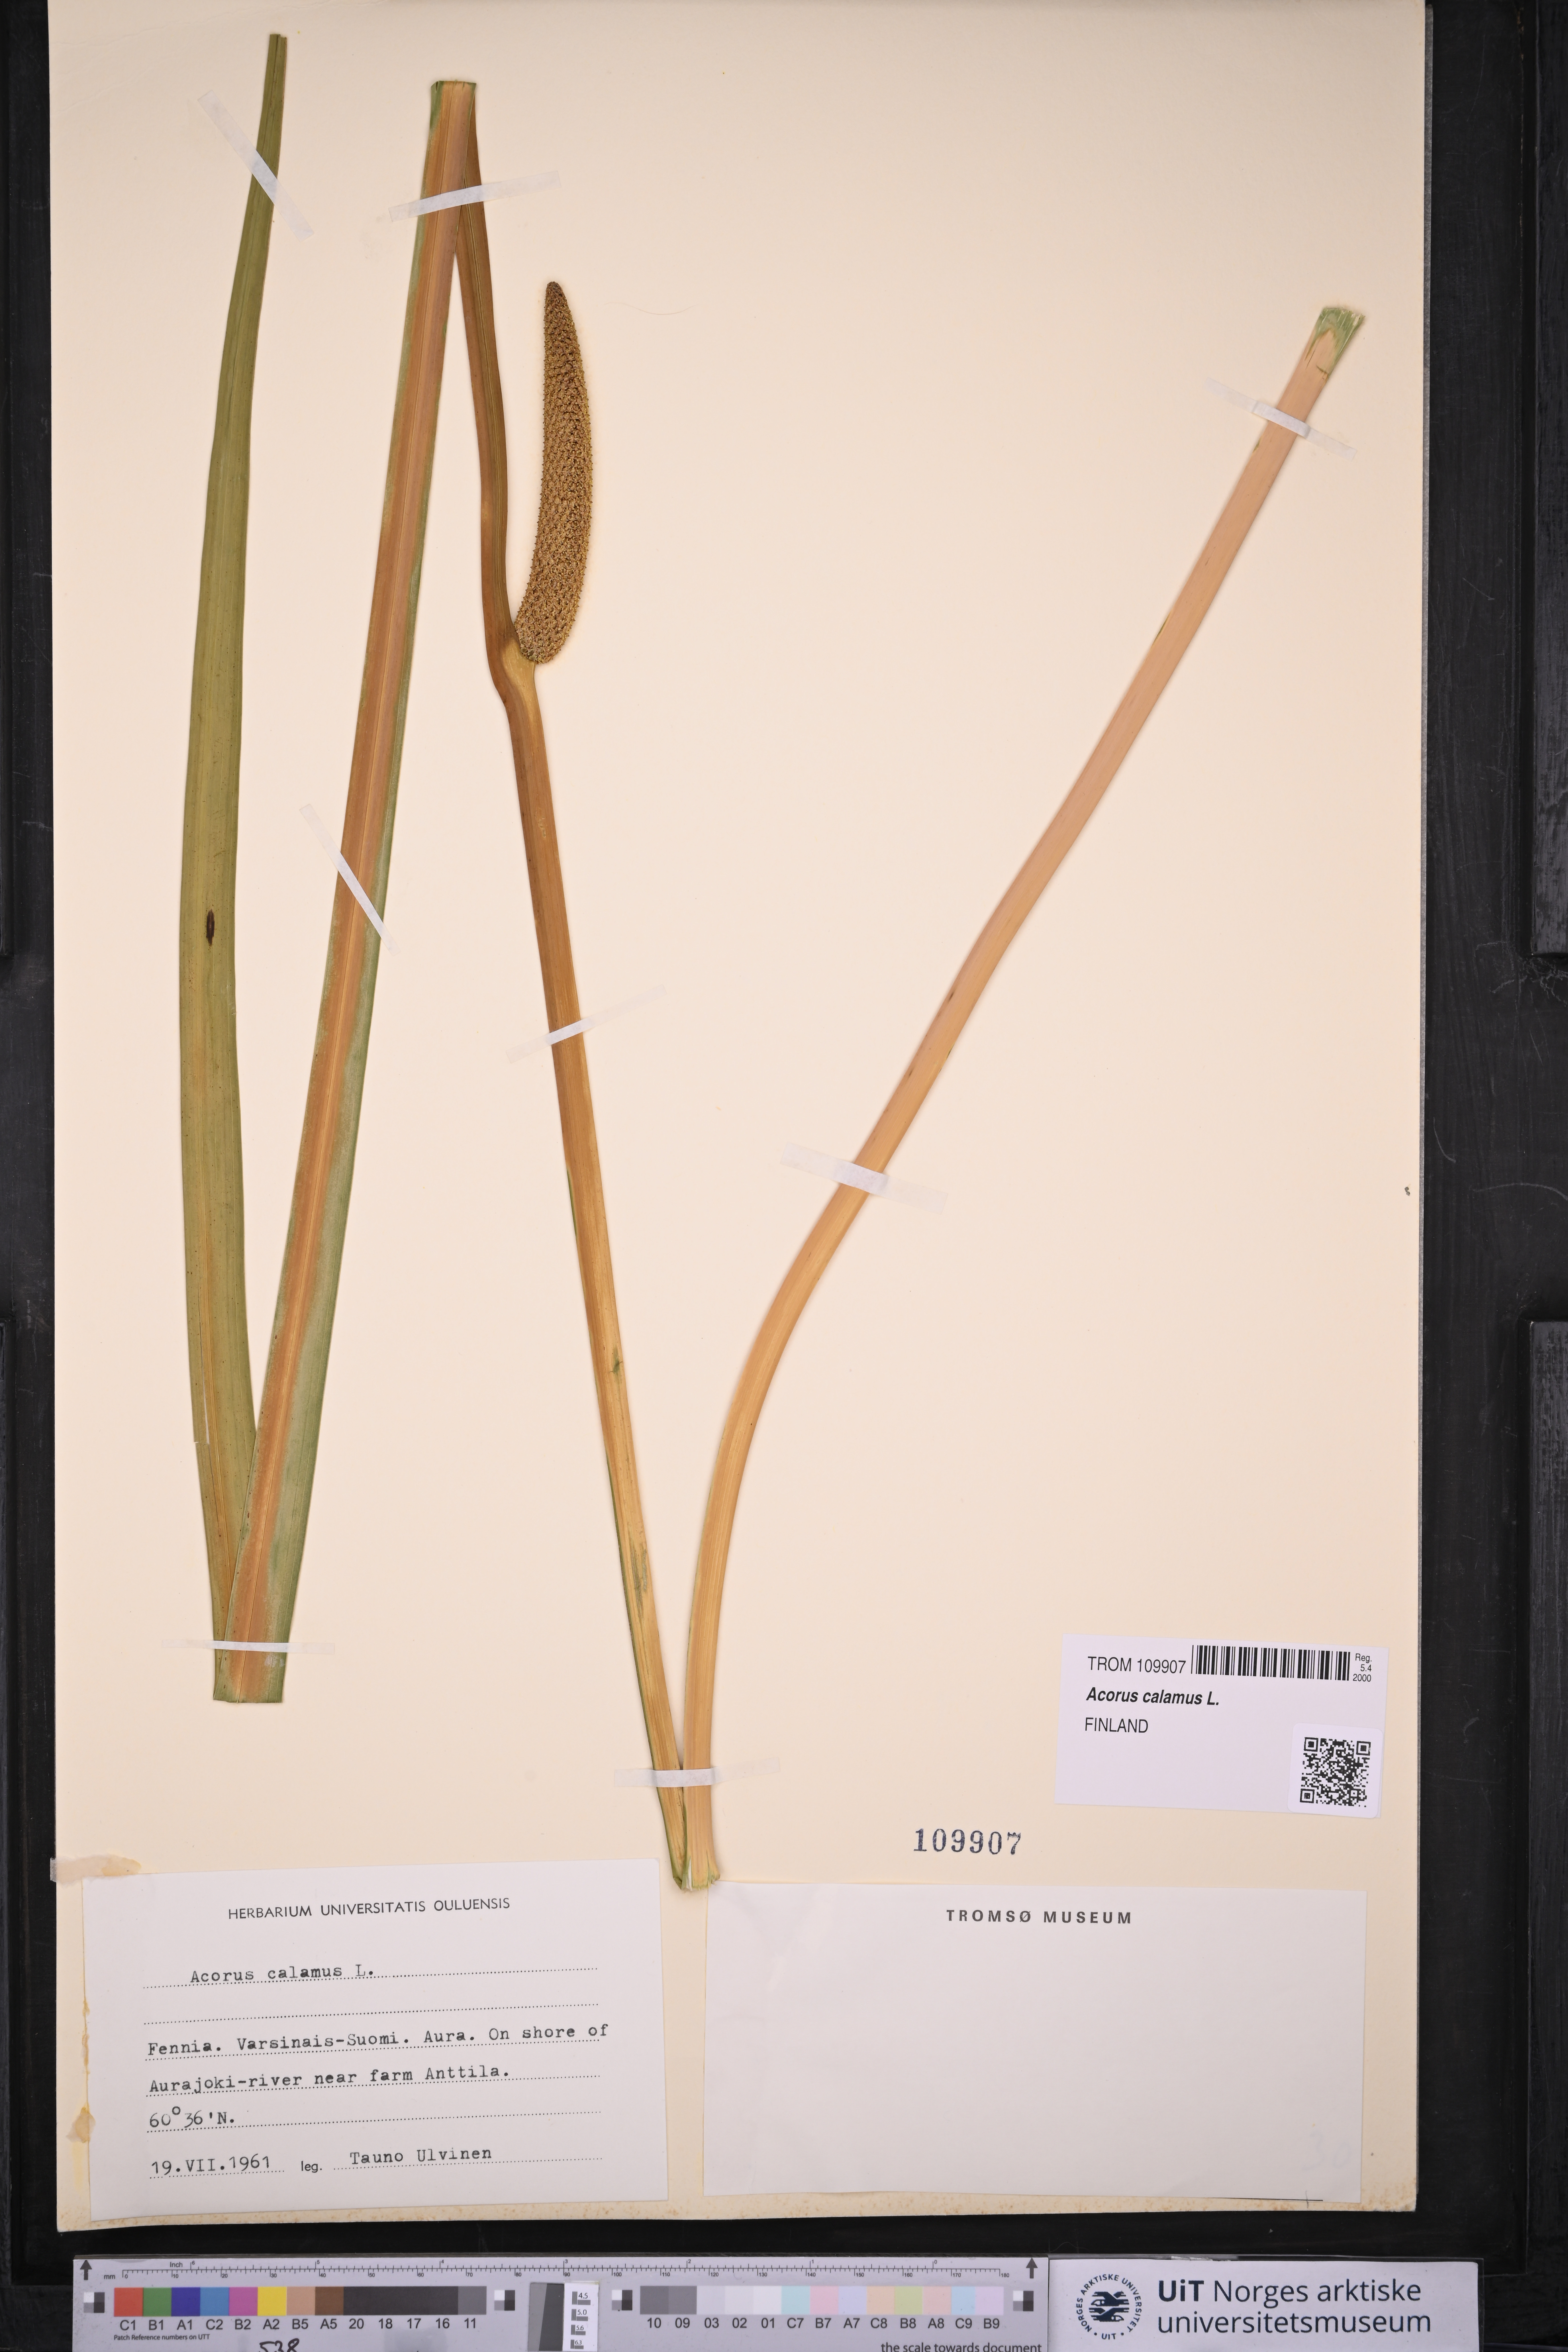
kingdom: Plantae
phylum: Tracheophyta
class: Liliopsida
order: Acorales
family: Acoraceae
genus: Acorus
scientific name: Acorus calamus
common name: Sweet-flag
